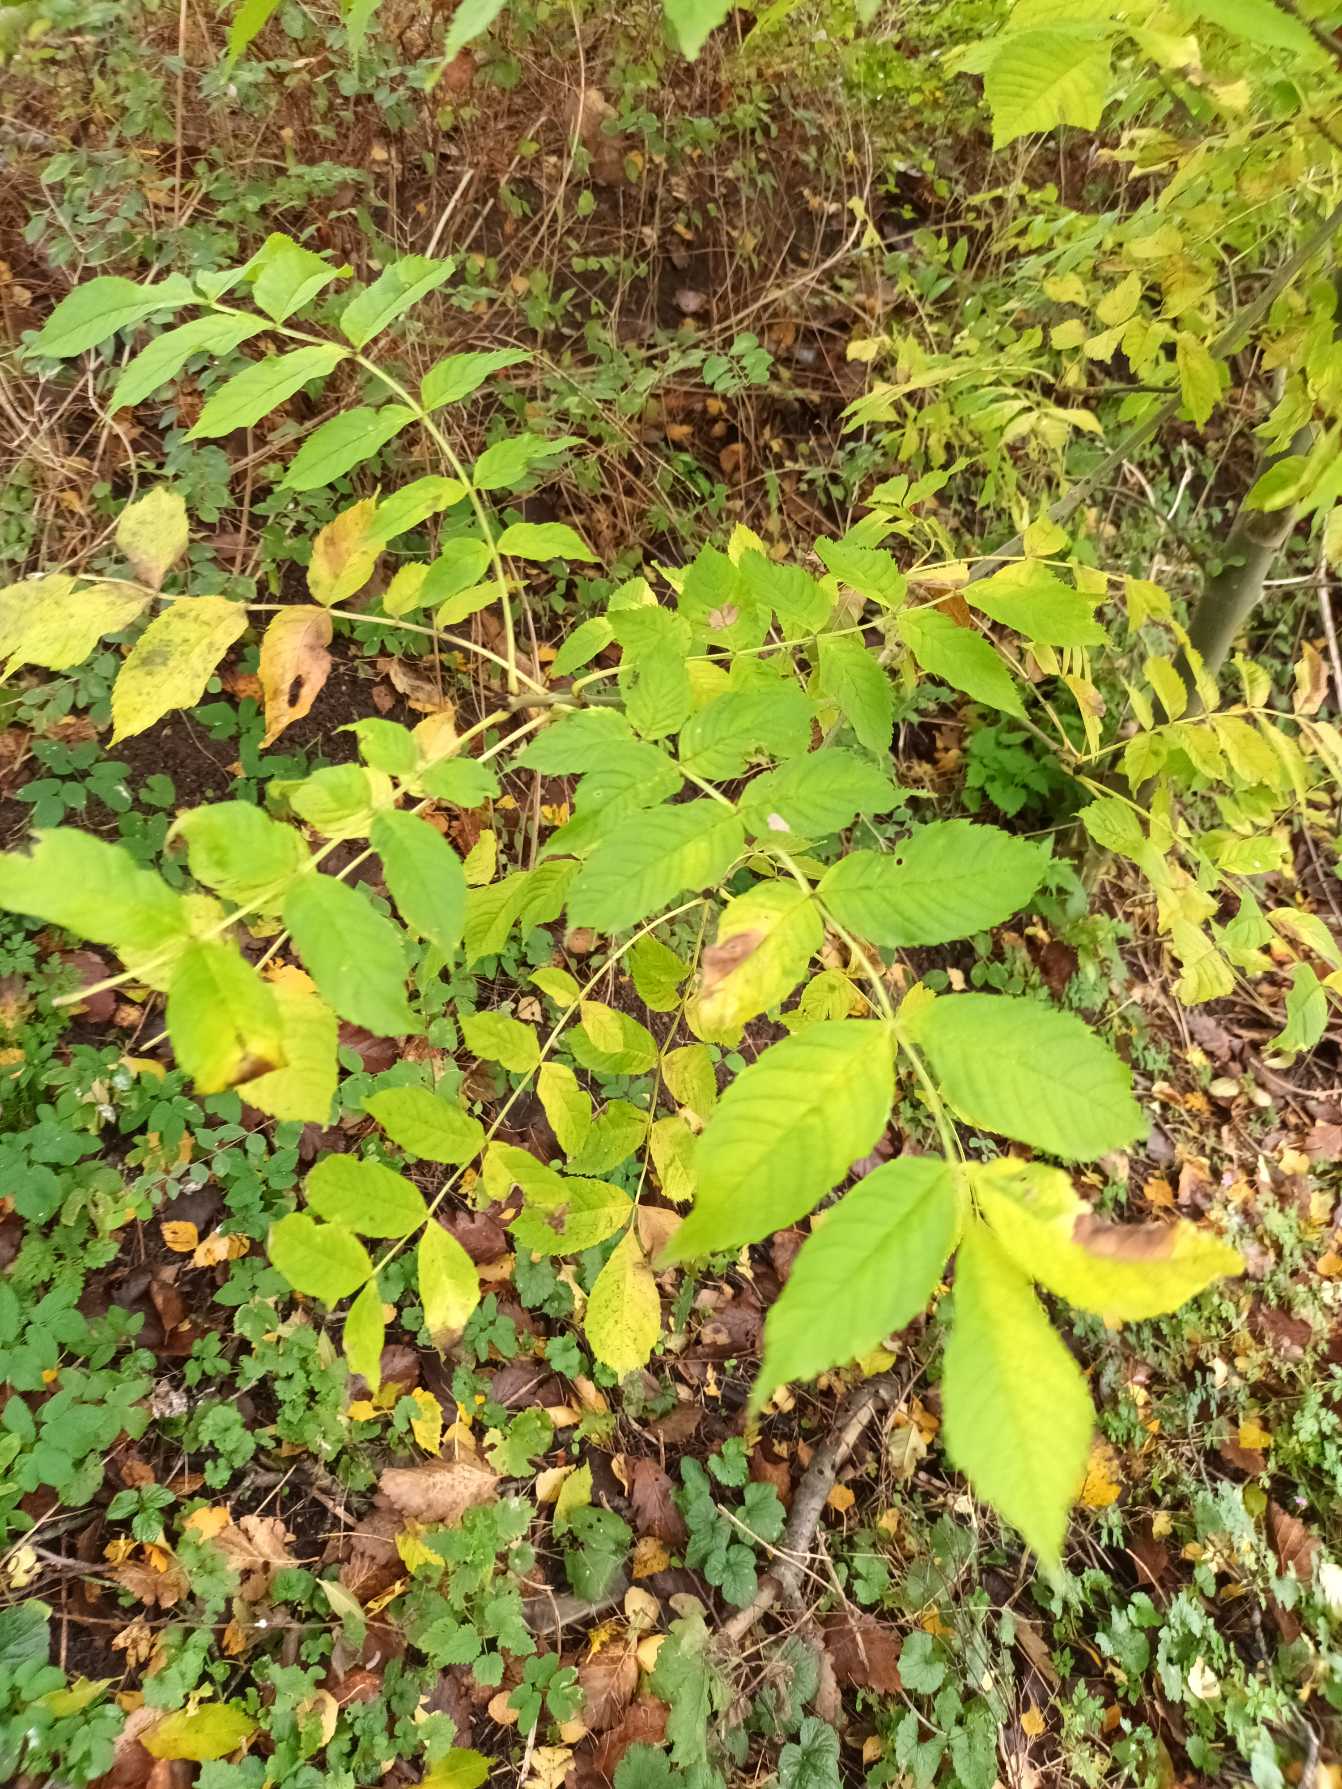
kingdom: Plantae
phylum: Tracheophyta
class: Magnoliopsida
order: Lamiales
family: Oleaceae
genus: Fraxinus
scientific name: Fraxinus excelsior
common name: Ask
